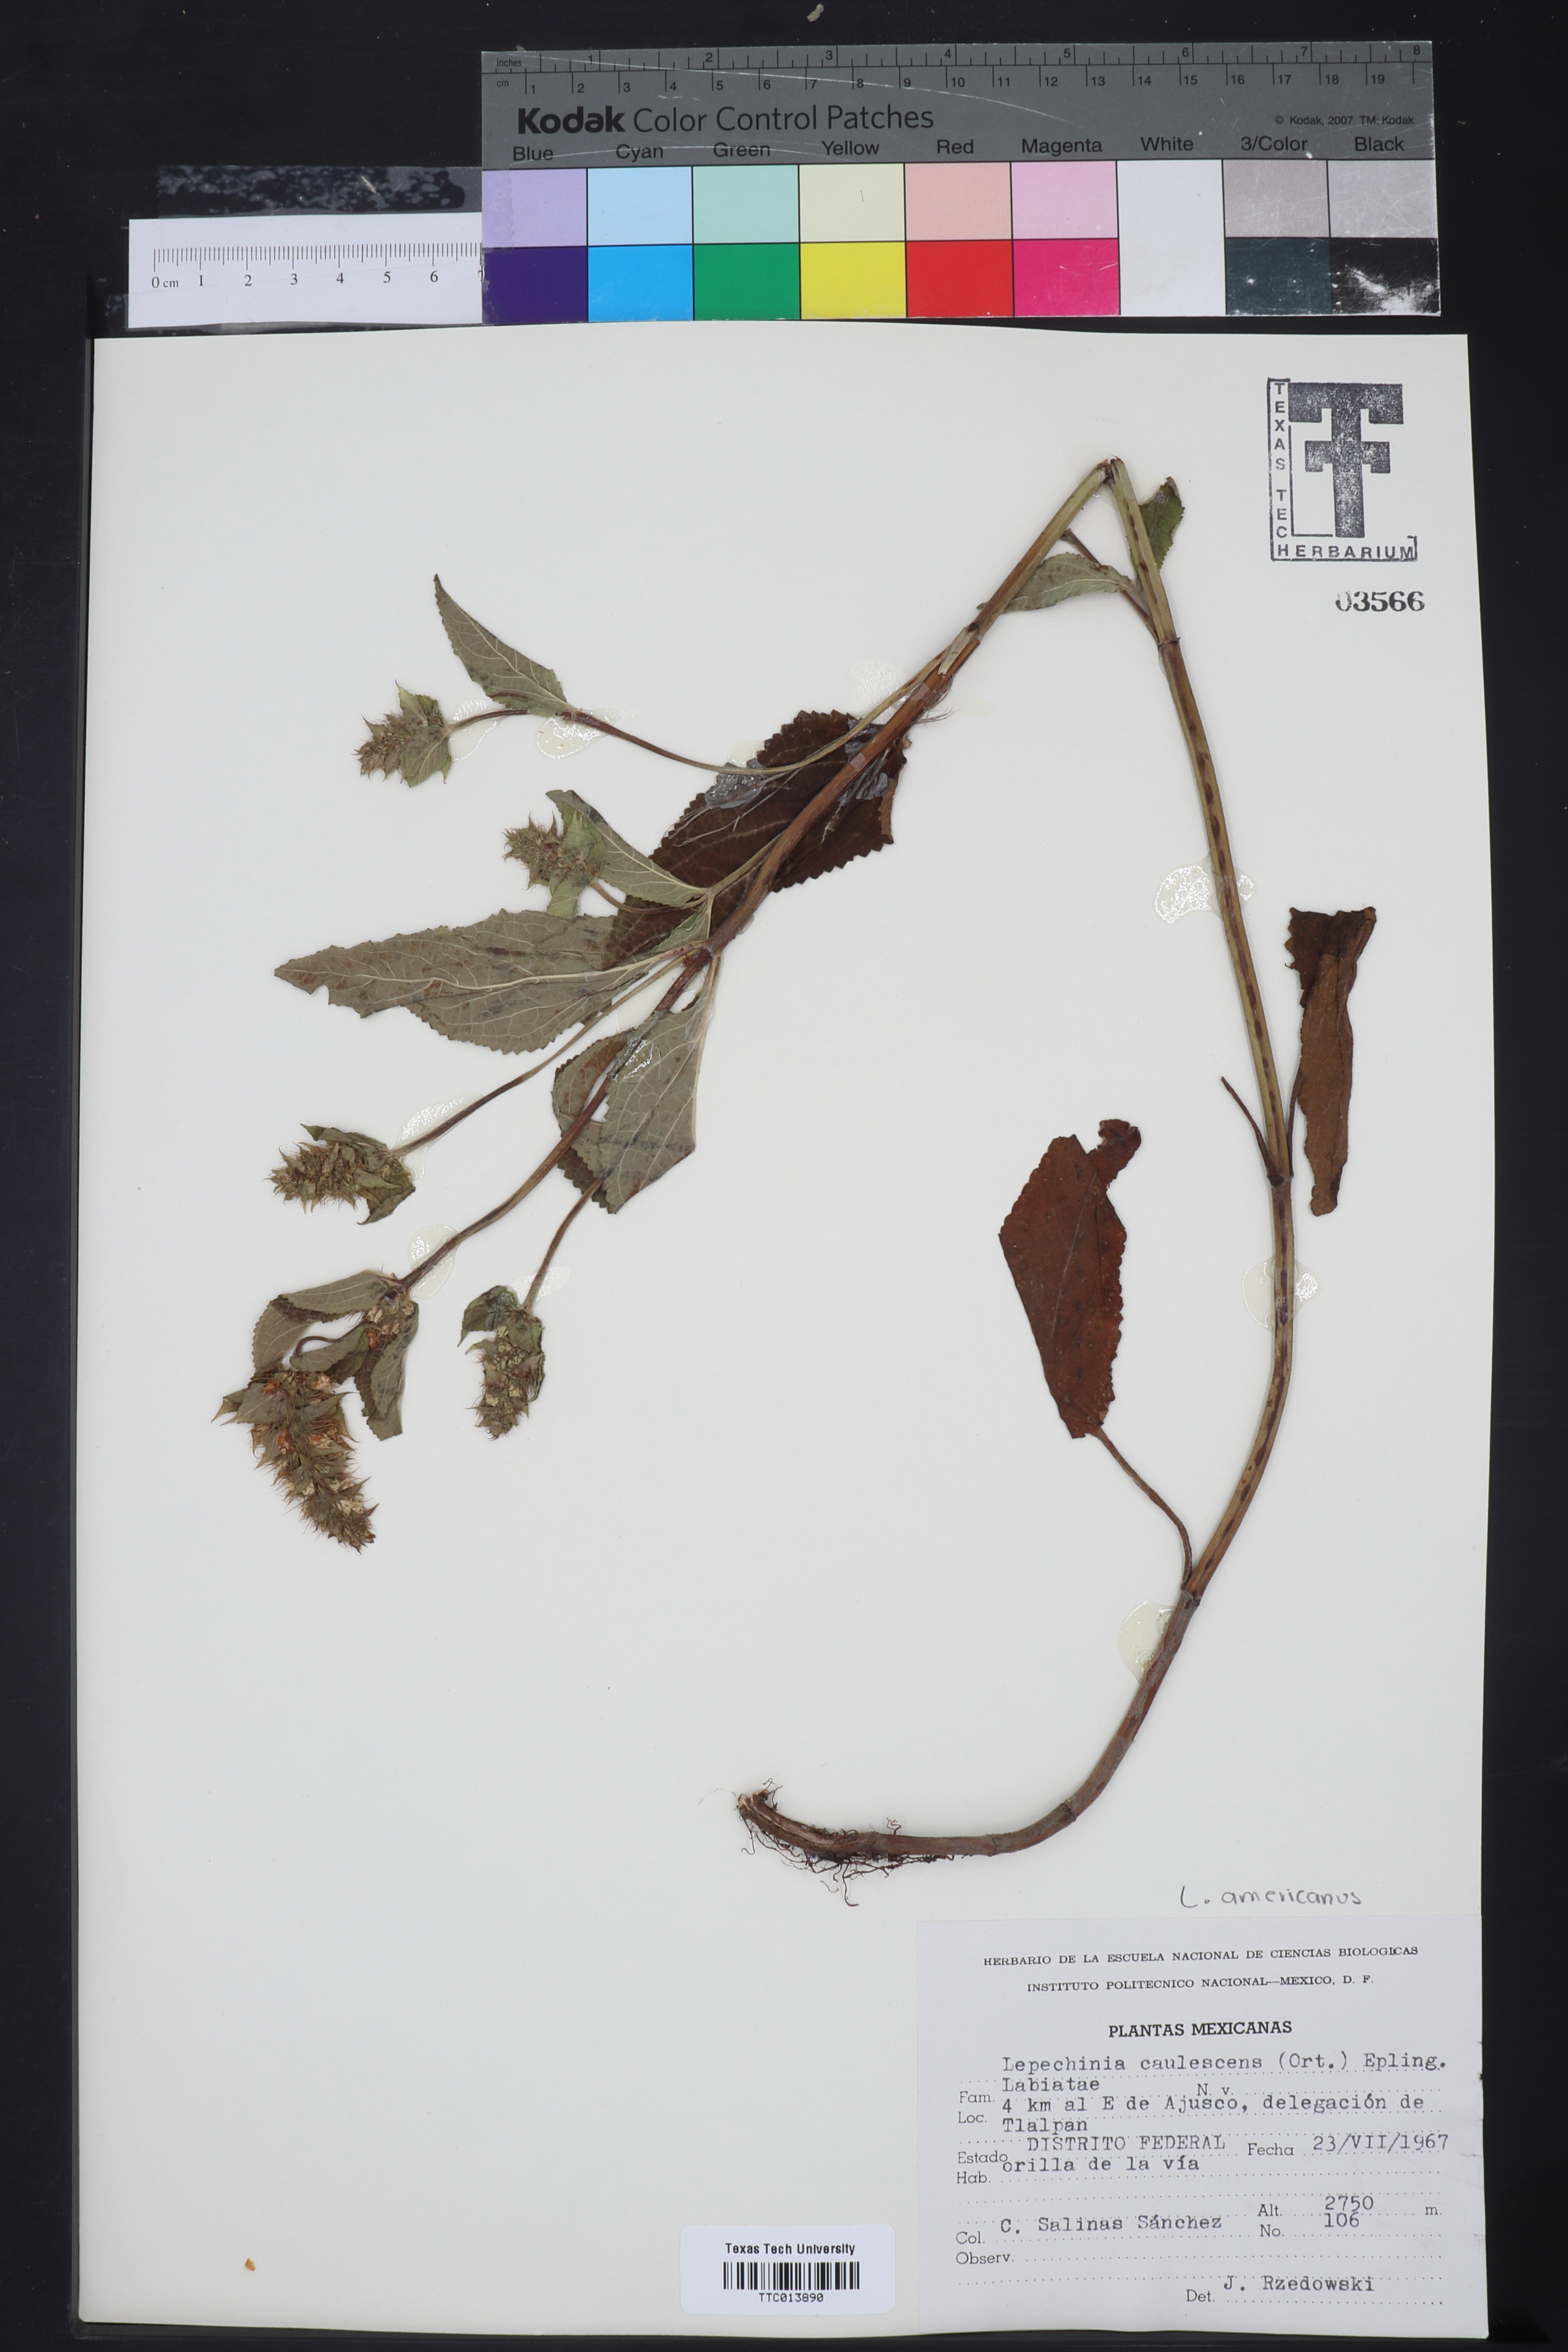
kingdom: Plantae
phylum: Tracheophyta
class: Magnoliopsida
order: Lamiales
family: Lamiaceae
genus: Lepechinia
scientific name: Lepechinia caulescens
